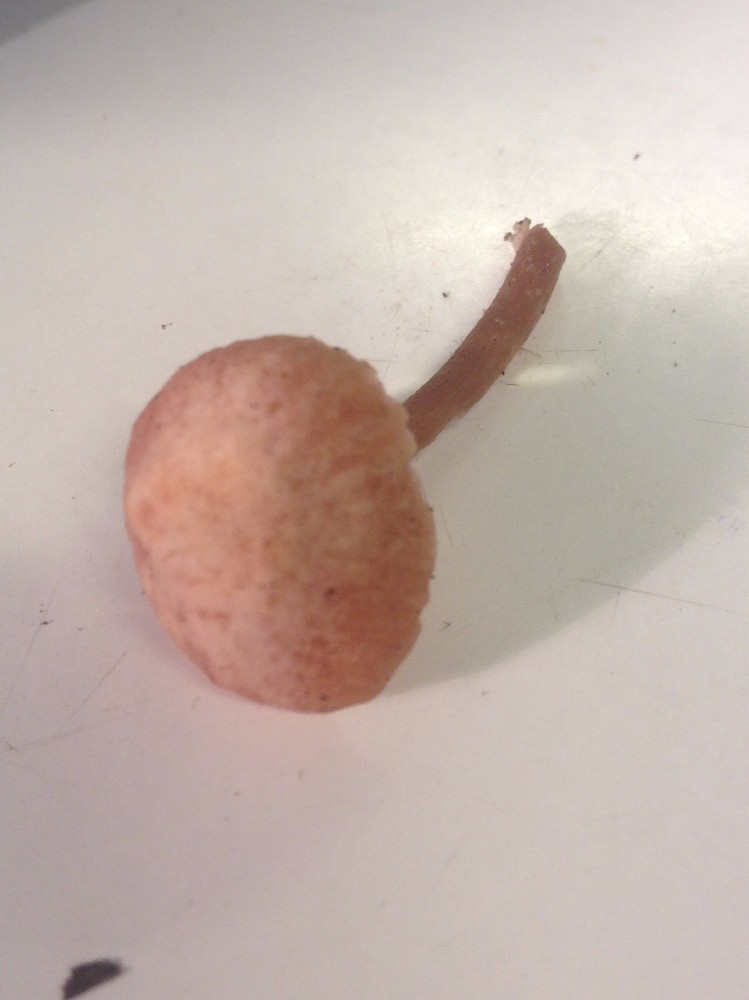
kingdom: Fungi
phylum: Basidiomycota
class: Agaricomycetes
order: Agaricales
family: Hydnangiaceae
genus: Laccaria
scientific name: Laccaria laccata
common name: rød ametysthat
